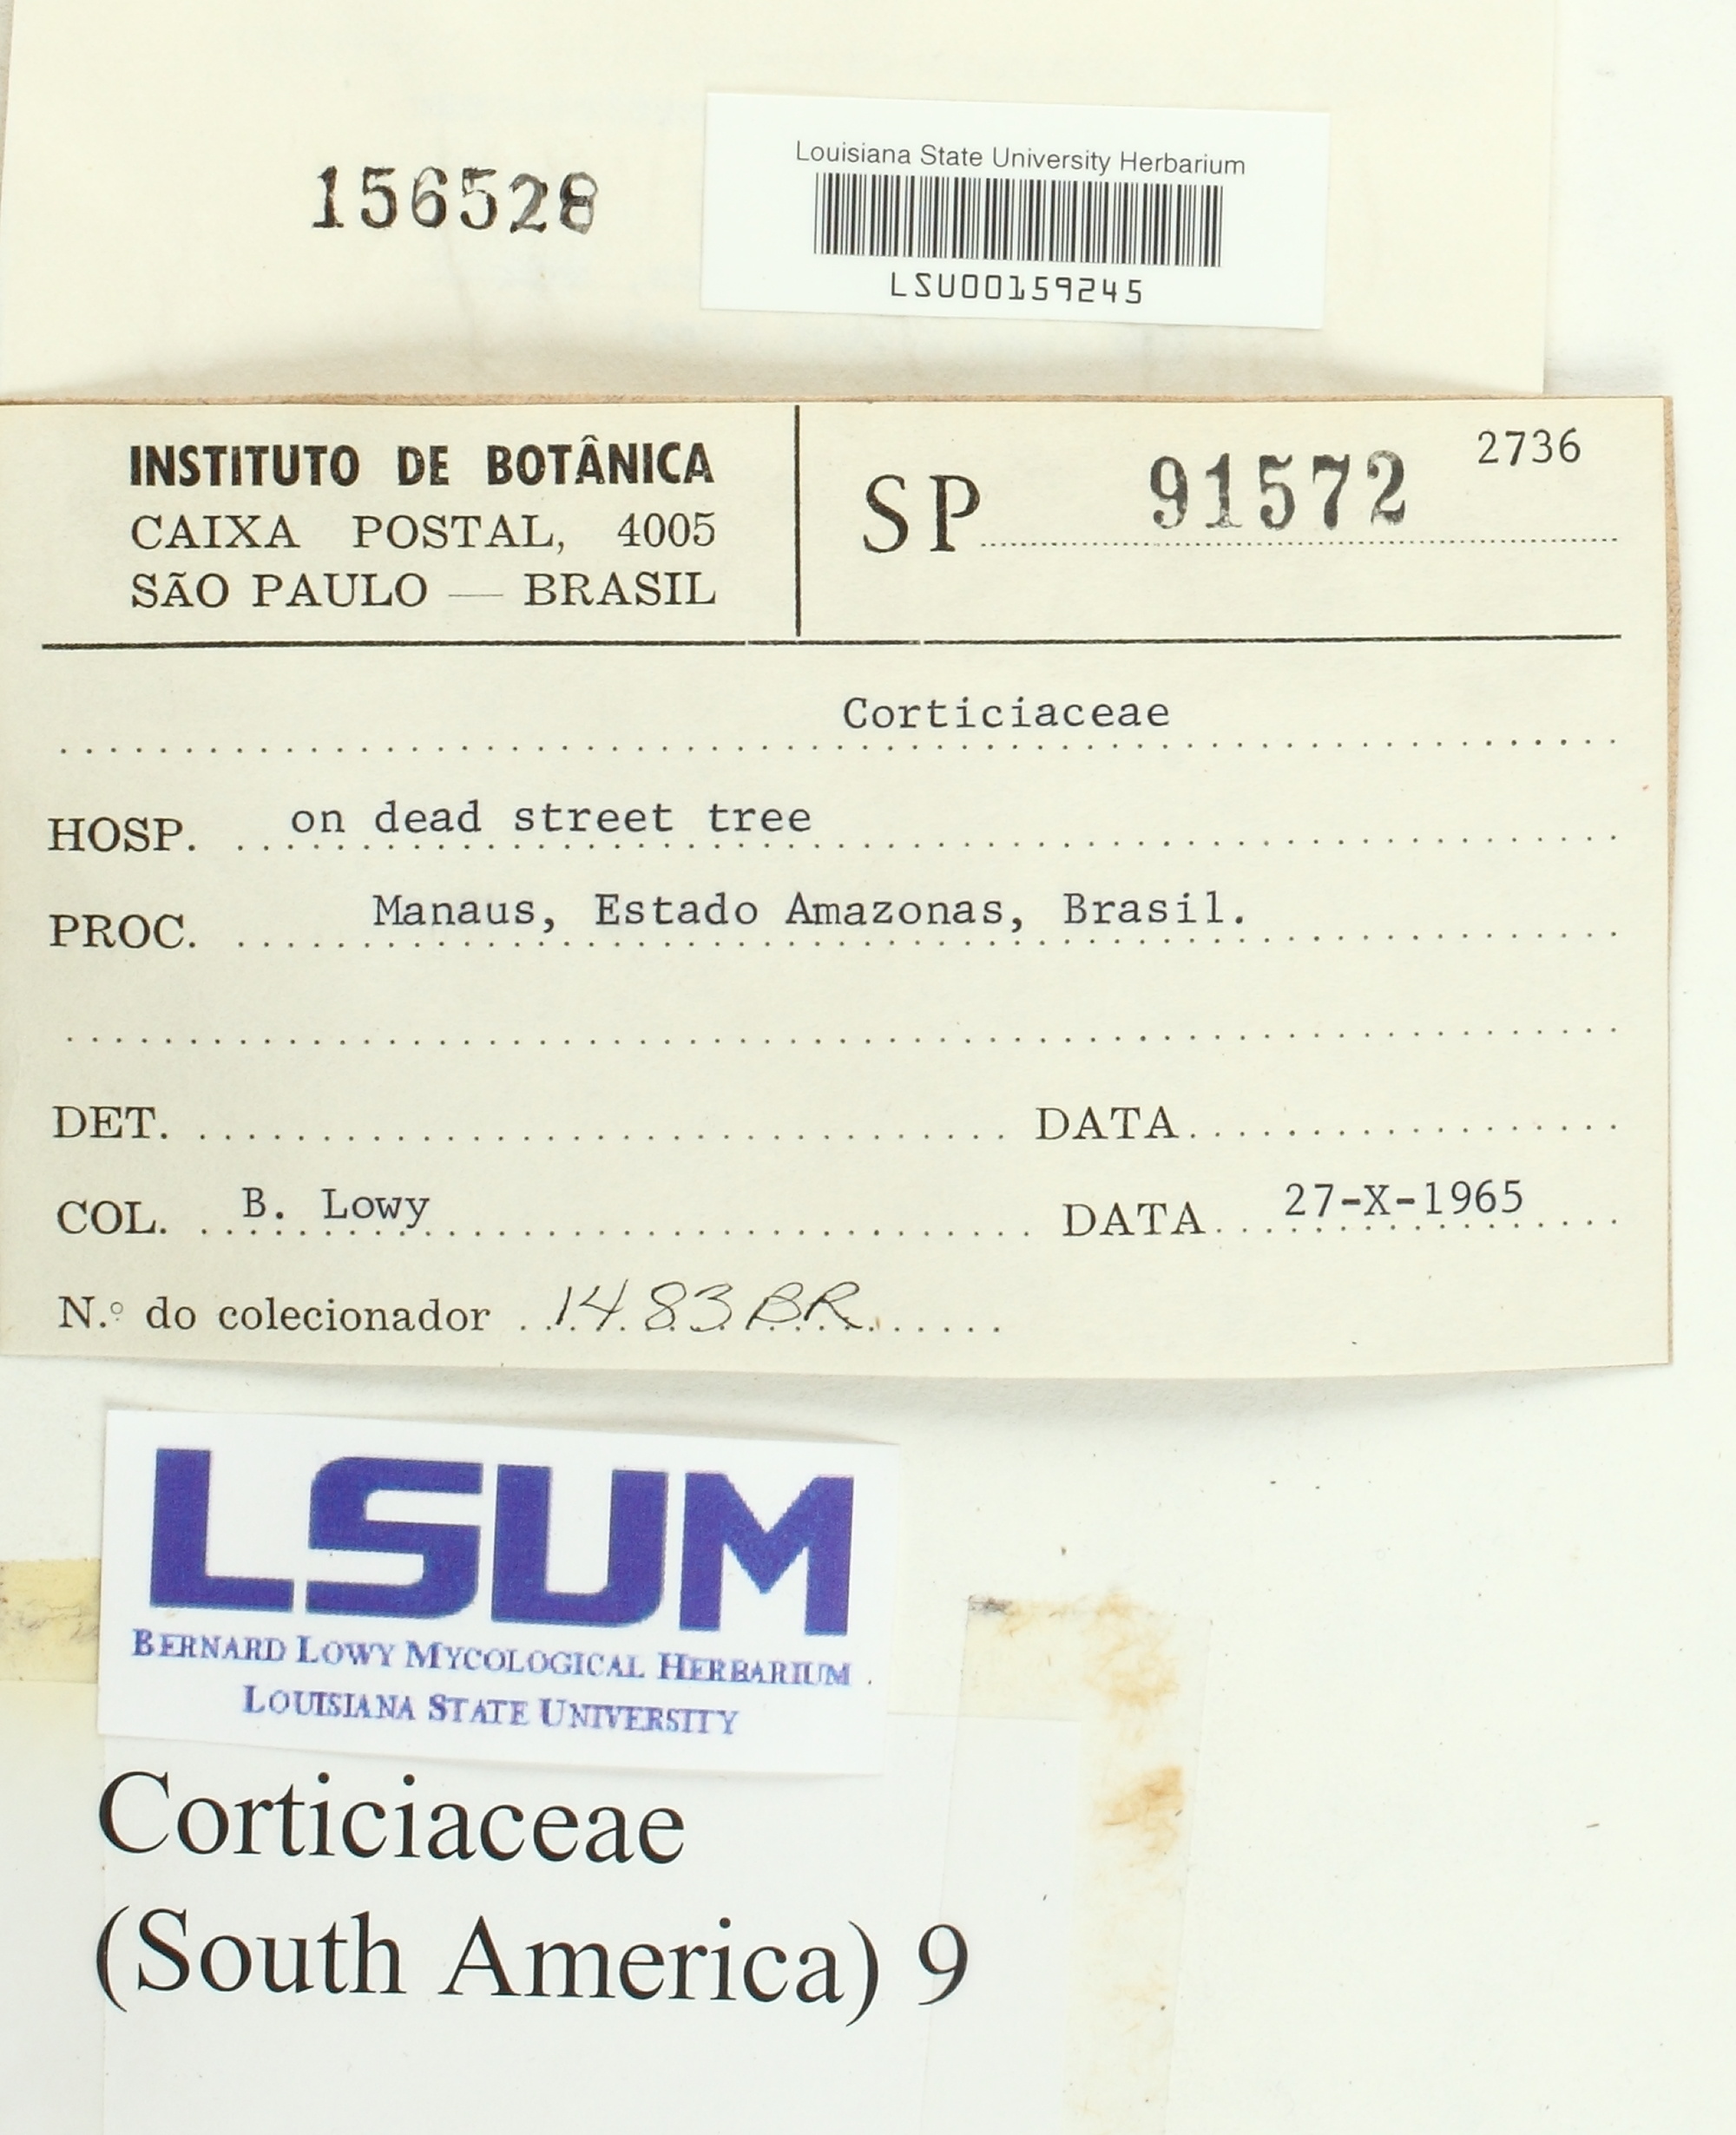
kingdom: Fungi
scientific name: Fungi
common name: Fungi
